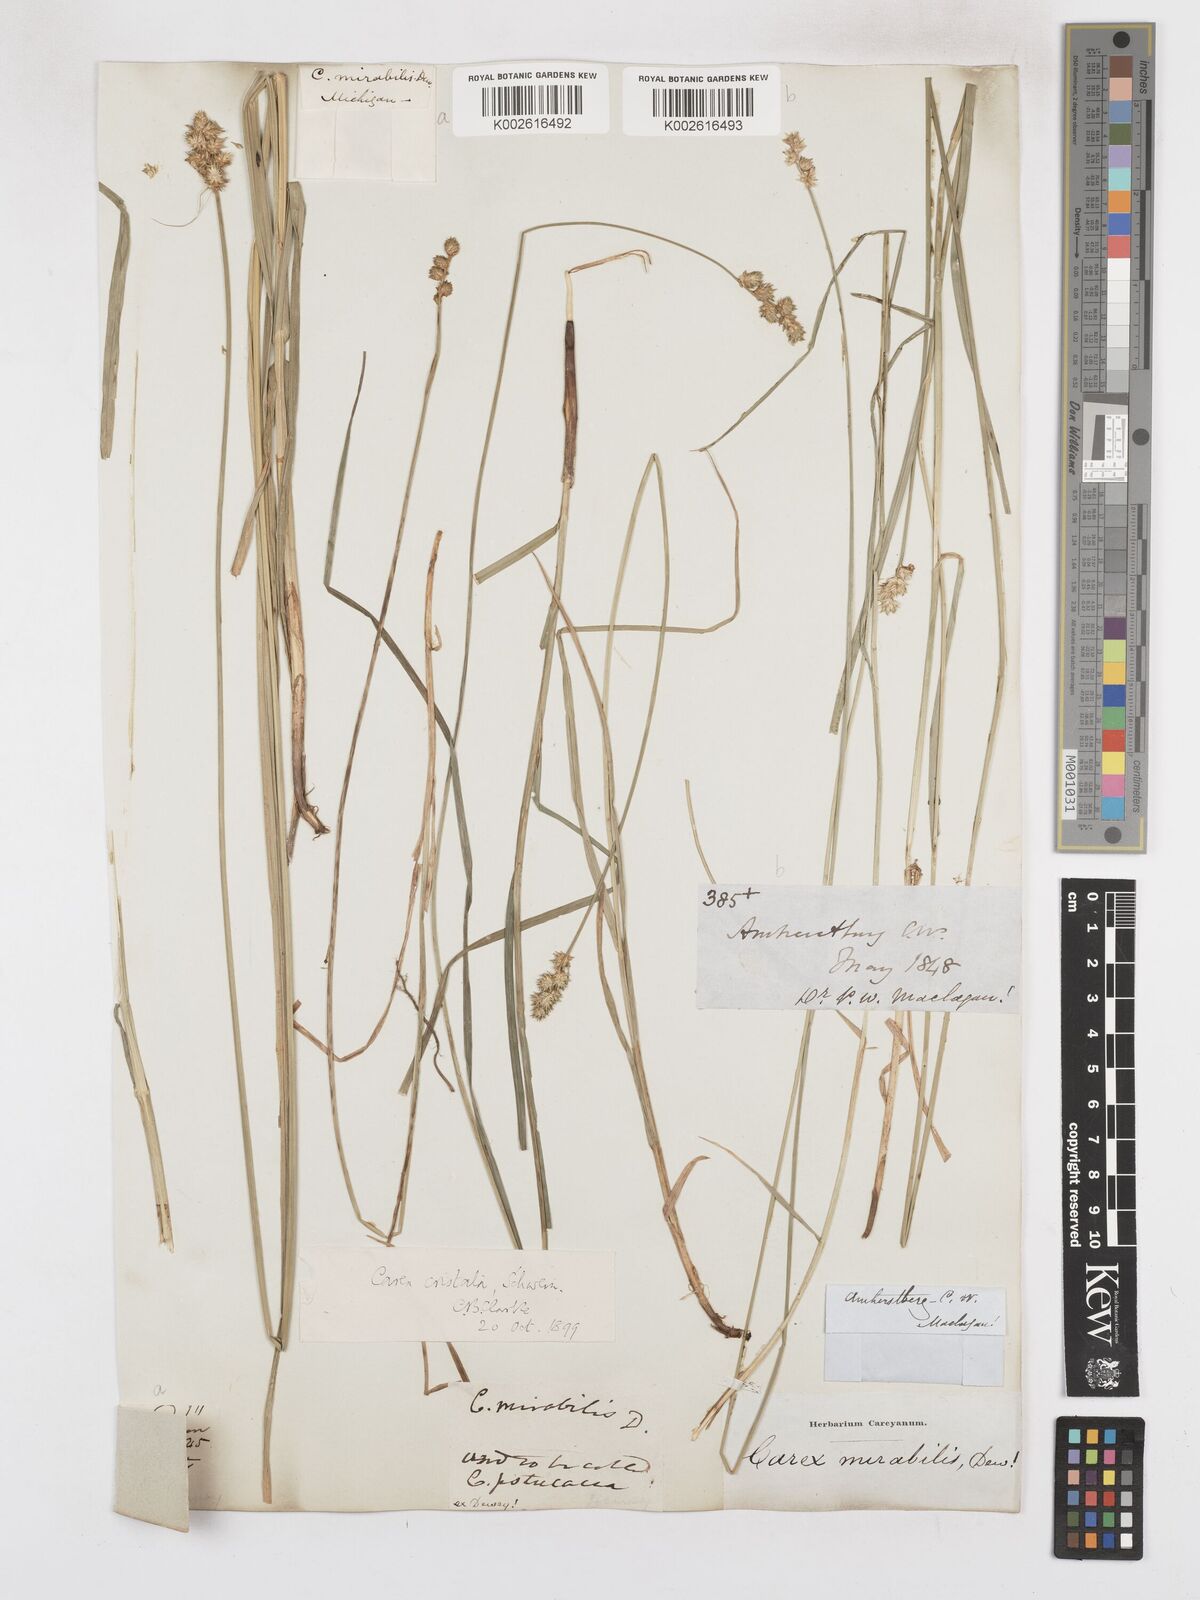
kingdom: Plantae
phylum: Tracheophyta
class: Liliopsida
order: Poales
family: Cyperaceae
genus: Carex
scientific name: Carex cristatella
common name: Crested oval sedge
